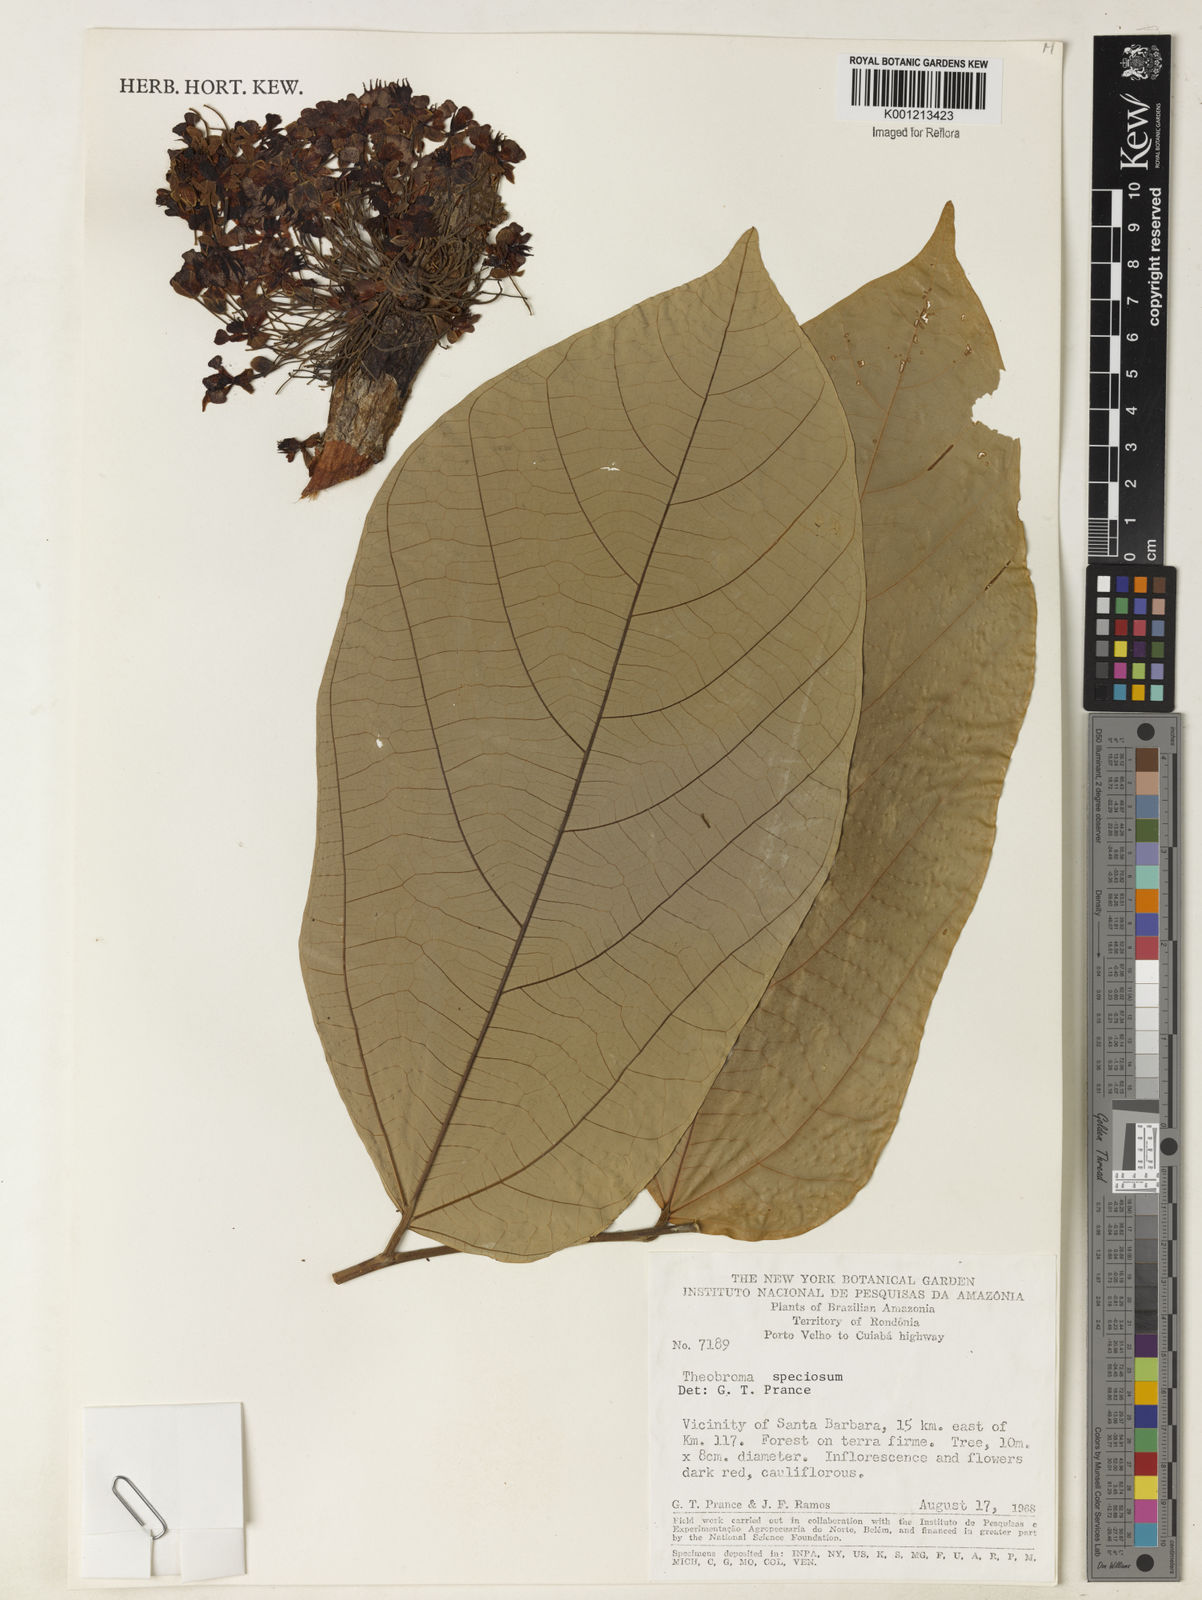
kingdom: Plantae
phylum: Tracheophyta
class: Magnoliopsida
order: Malvales
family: Malvaceae
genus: Theobroma
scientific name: Theobroma speciosum
